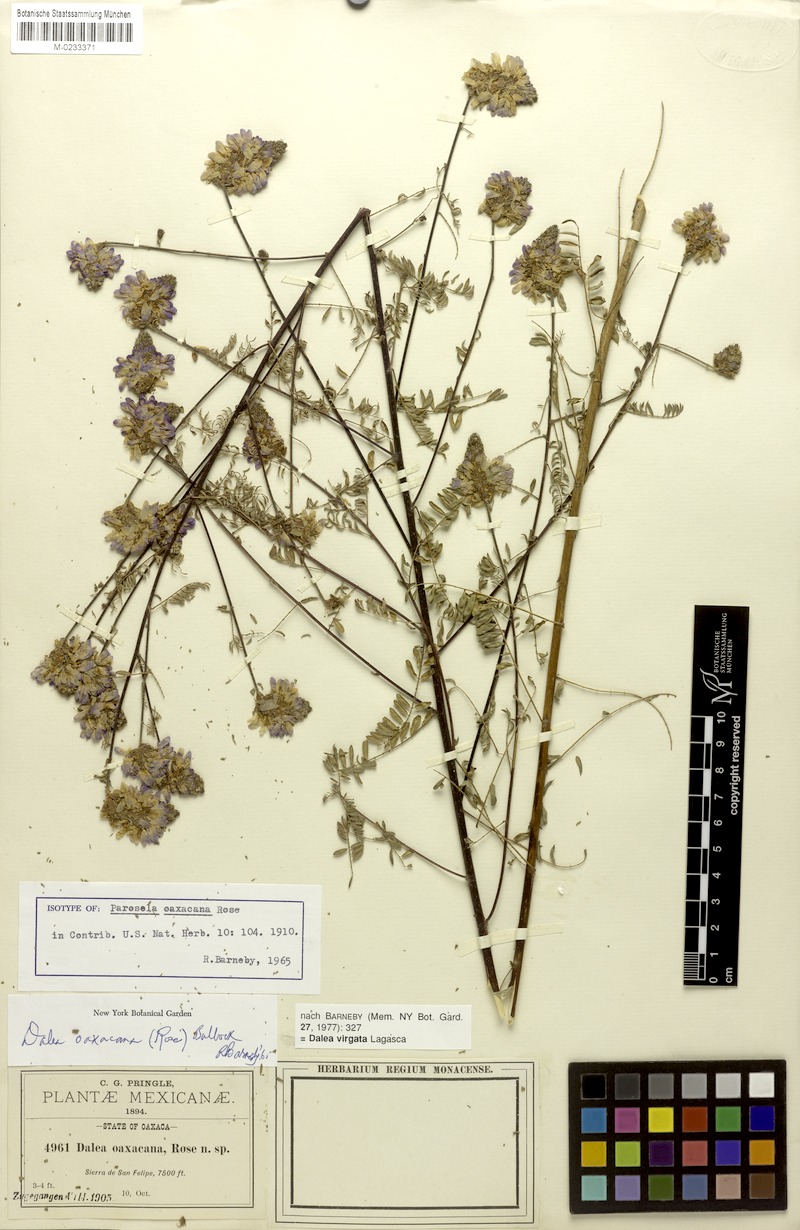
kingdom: Plantae
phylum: Tracheophyta
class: Magnoliopsida
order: Fabales
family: Fabaceae
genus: Dalea
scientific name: Dalea virgata
